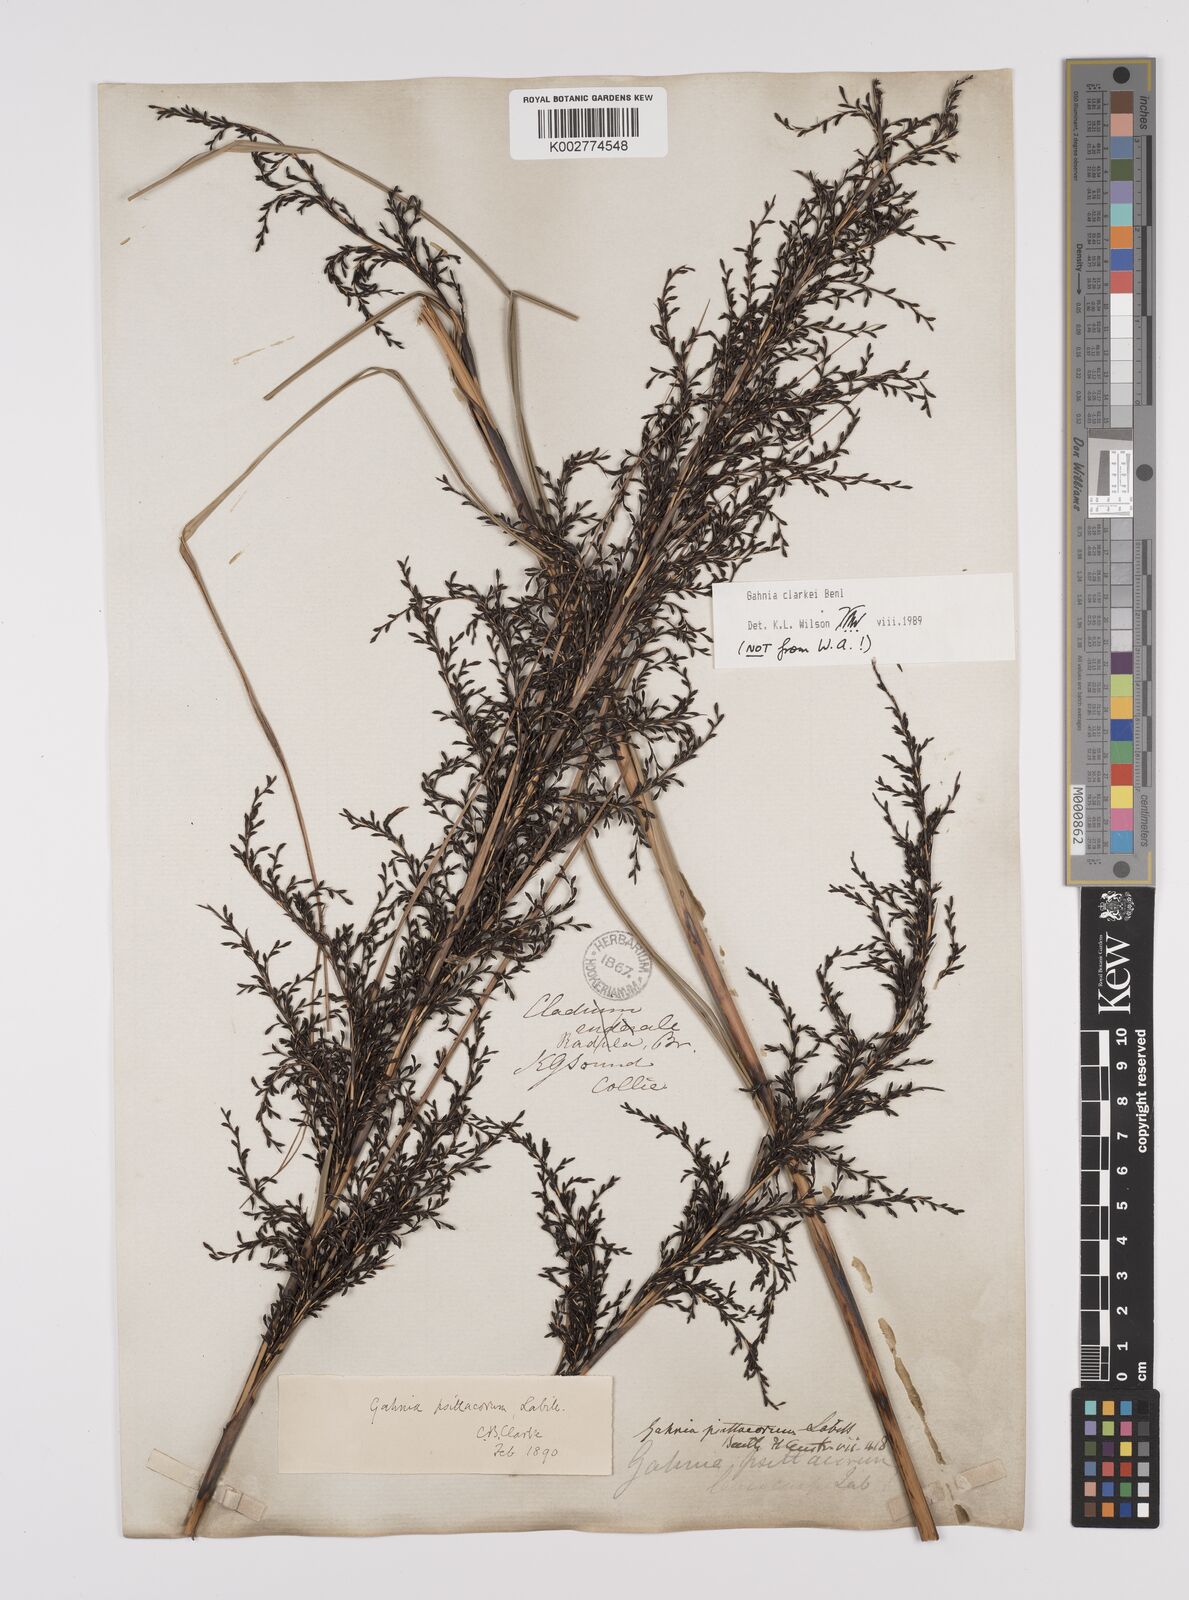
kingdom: Plantae
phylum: Tracheophyta
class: Liliopsida
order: Poales
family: Cyperaceae
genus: Gahnia
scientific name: Gahnia clarkei
